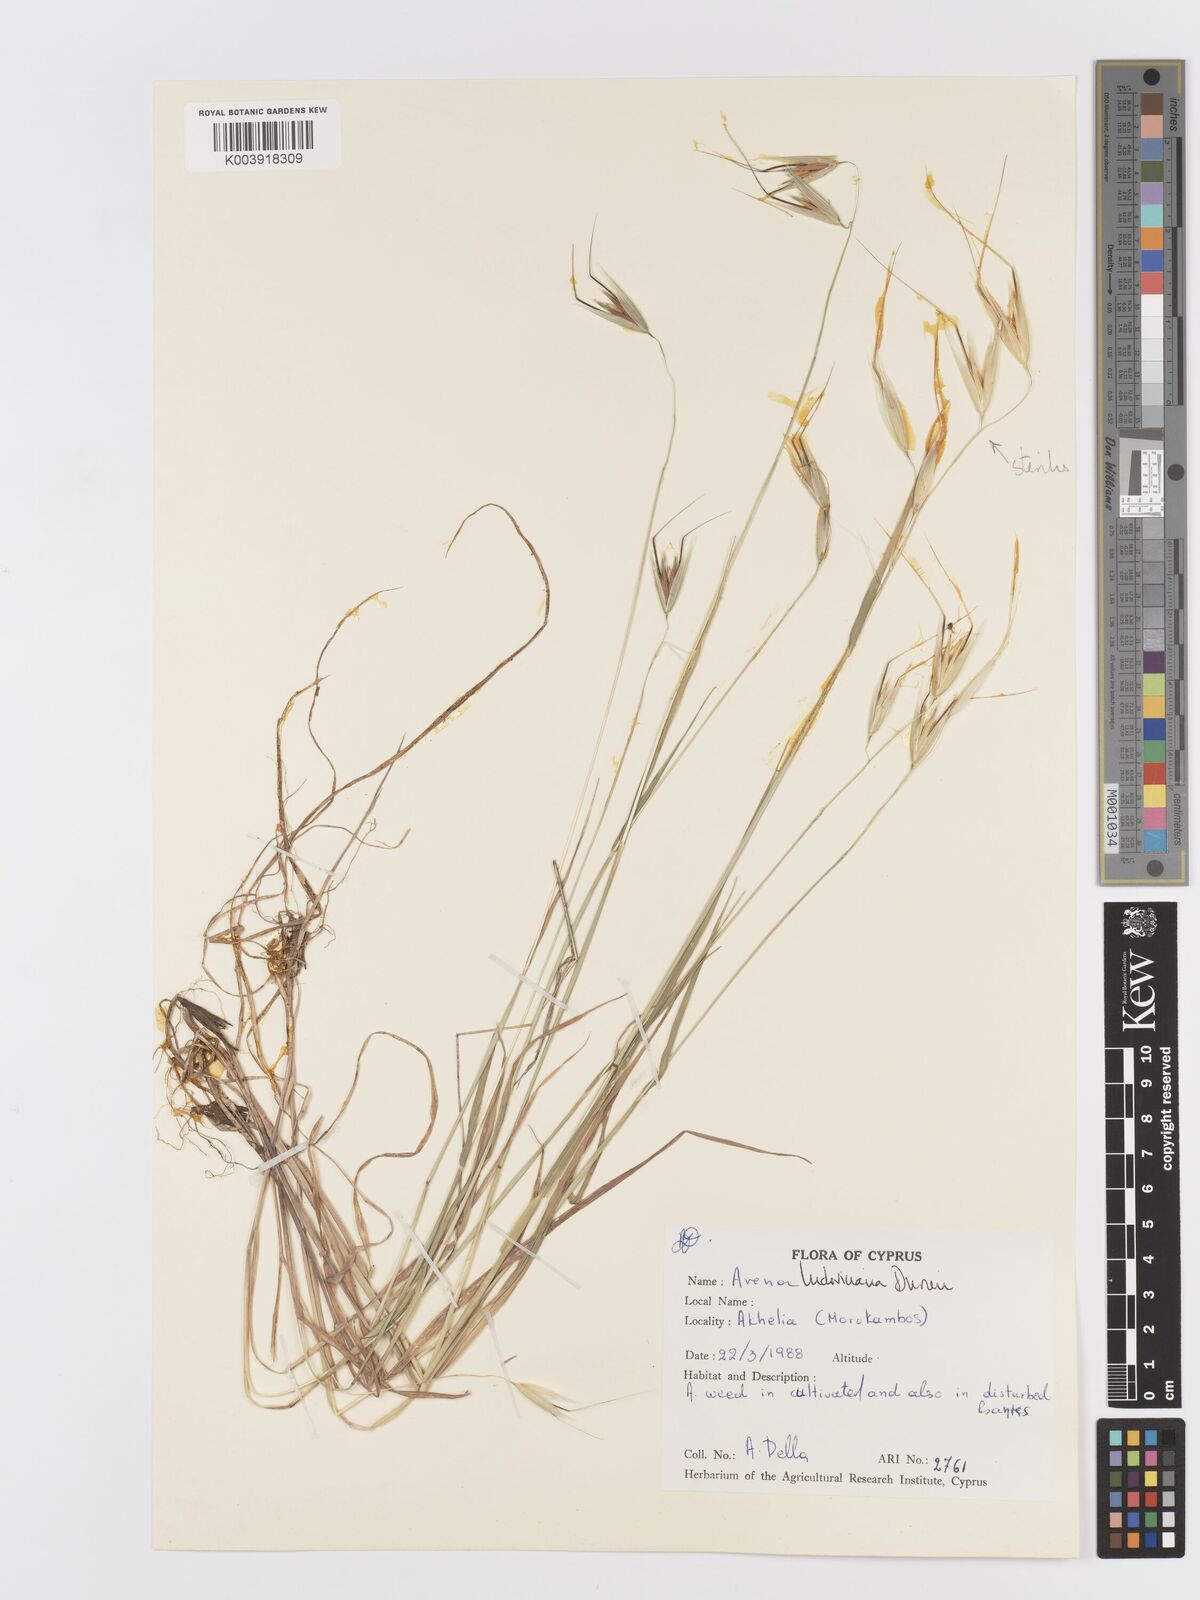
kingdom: Plantae
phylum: Tracheophyta
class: Liliopsida
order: Poales
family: Poaceae
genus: Avena
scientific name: Avena sterilis
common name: Animated oat
